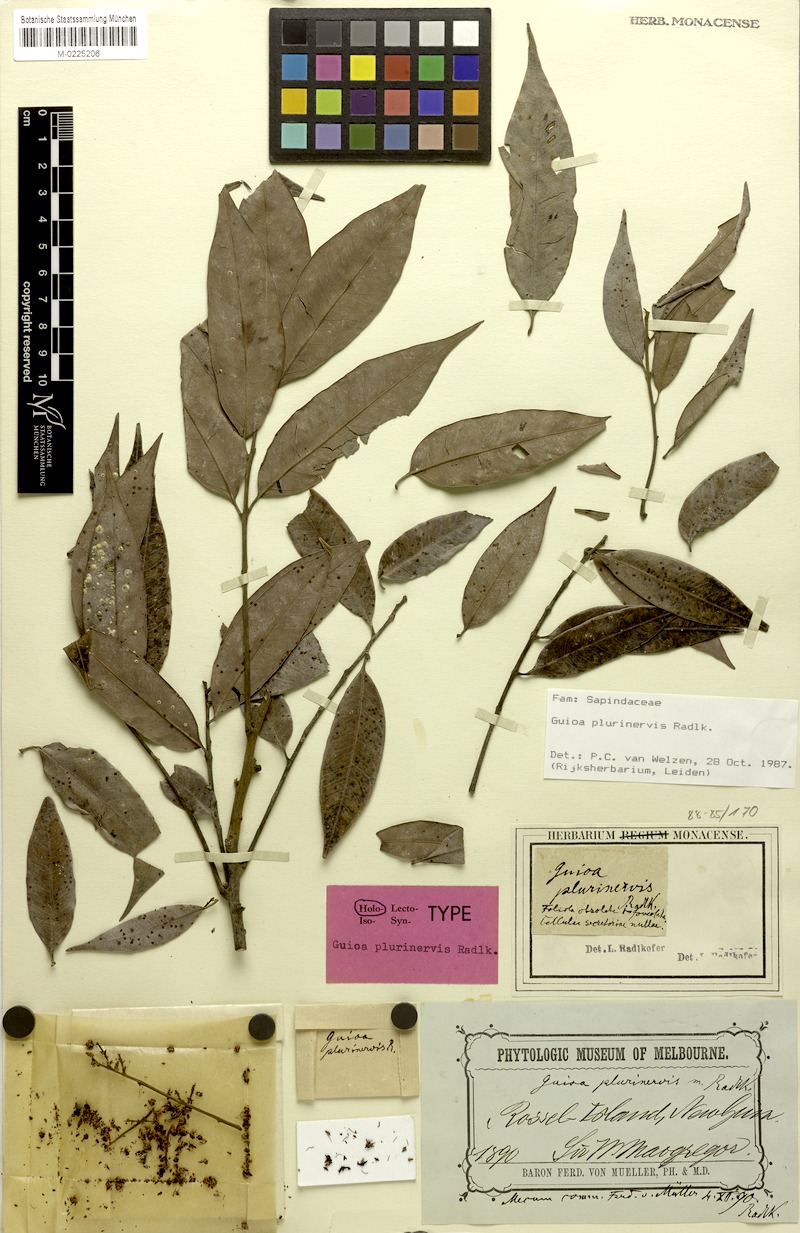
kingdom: Plantae
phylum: Tracheophyta
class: Magnoliopsida
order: Sapindales
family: Sapindaceae
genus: Guioa
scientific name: Guioa plurinervis
